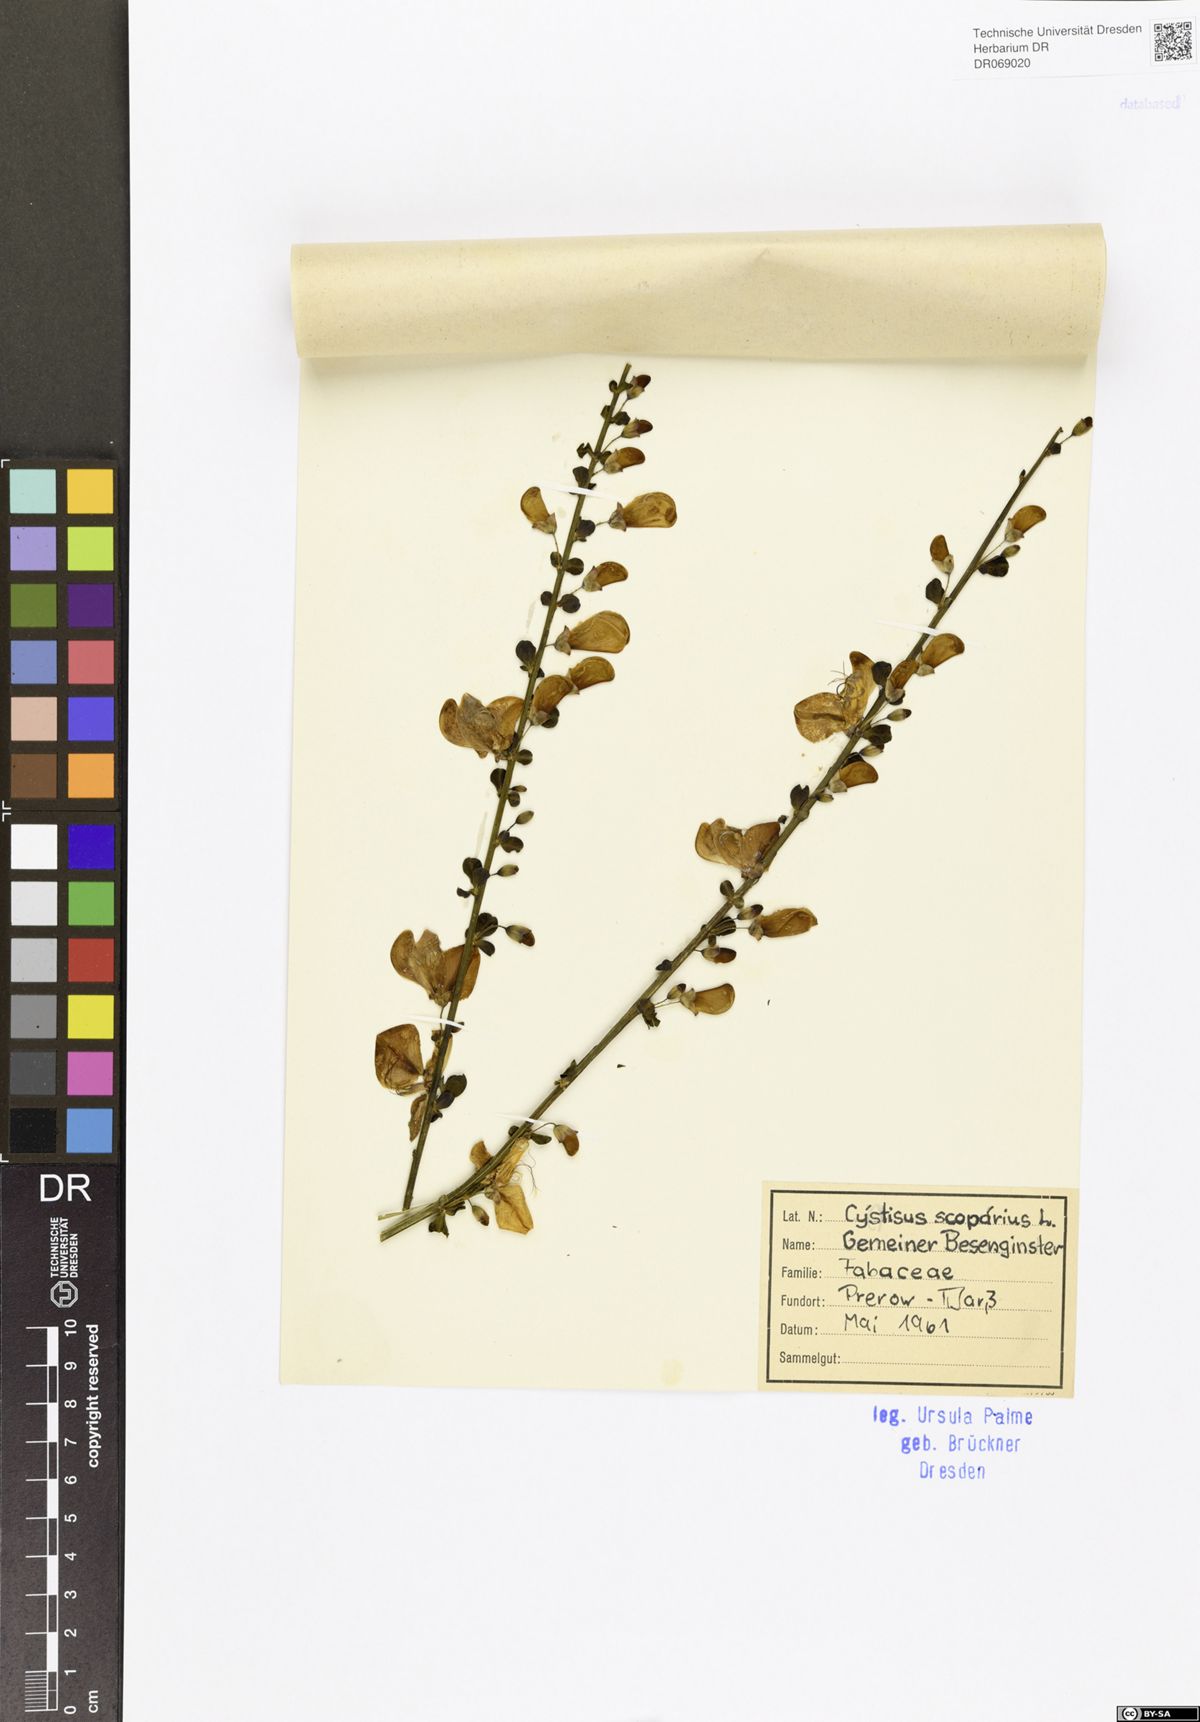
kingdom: Plantae
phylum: Tracheophyta
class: Magnoliopsida
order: Fabales
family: Fabaceae
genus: Cytisus
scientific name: Cytisus scoparius
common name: Scotch broom
